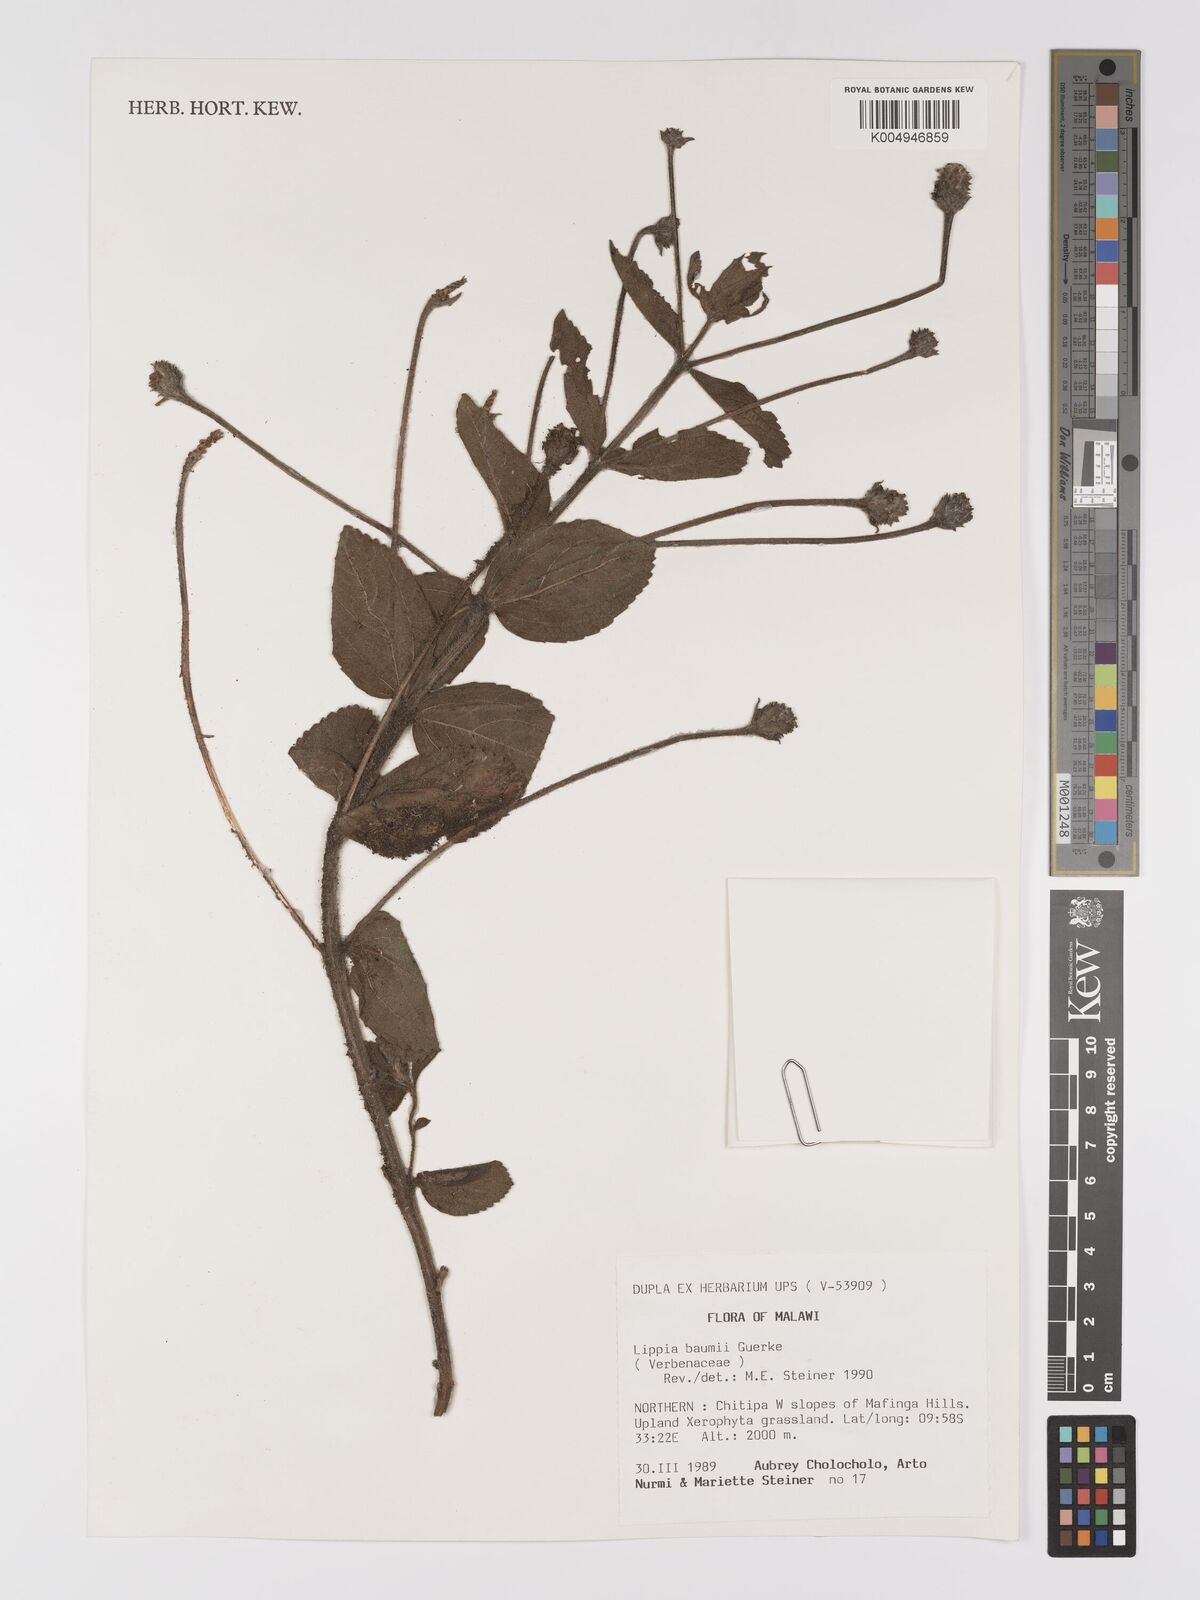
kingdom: Plantae
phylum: Tracheophyta
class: Magnoliopsida
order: Lamiales
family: Verbenaceae
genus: Lippia
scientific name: Lippia baumii
